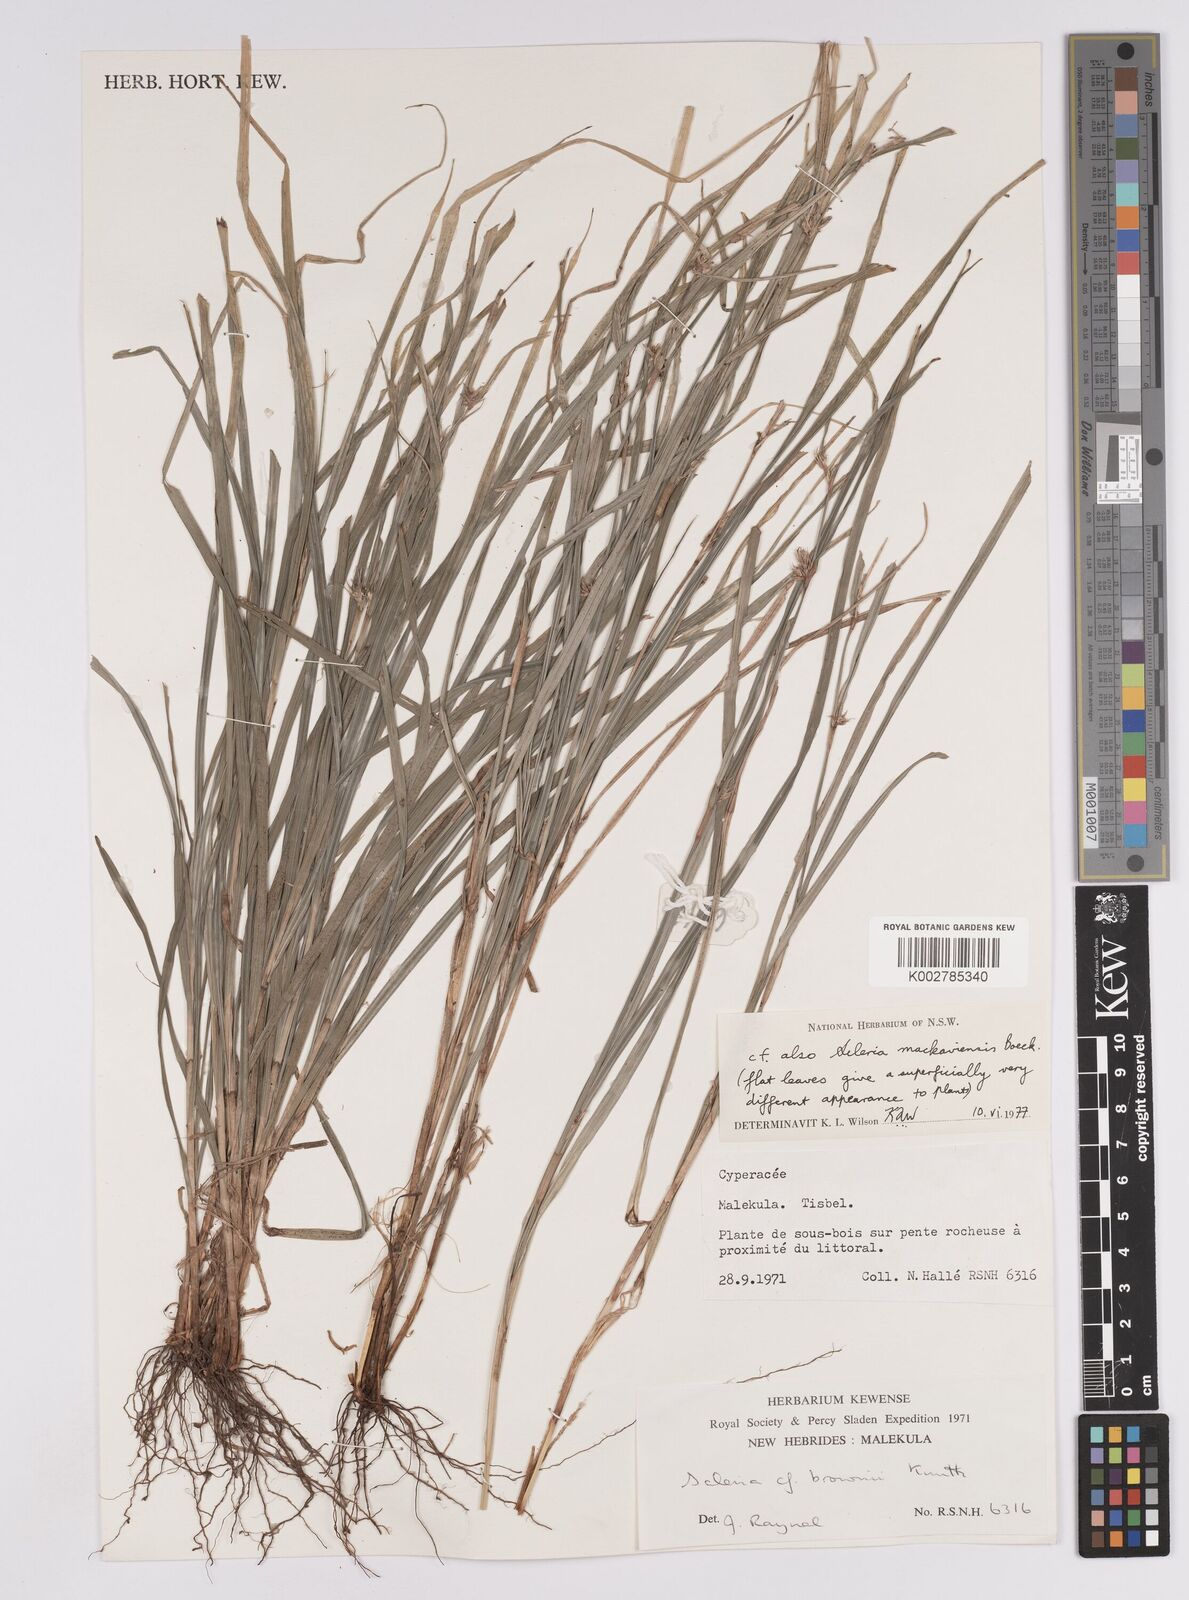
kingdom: Plantae
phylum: Tracheophyta
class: Liliopsida
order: Poales
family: Cyperaceae
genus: Scleria
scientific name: Scleria brownii
